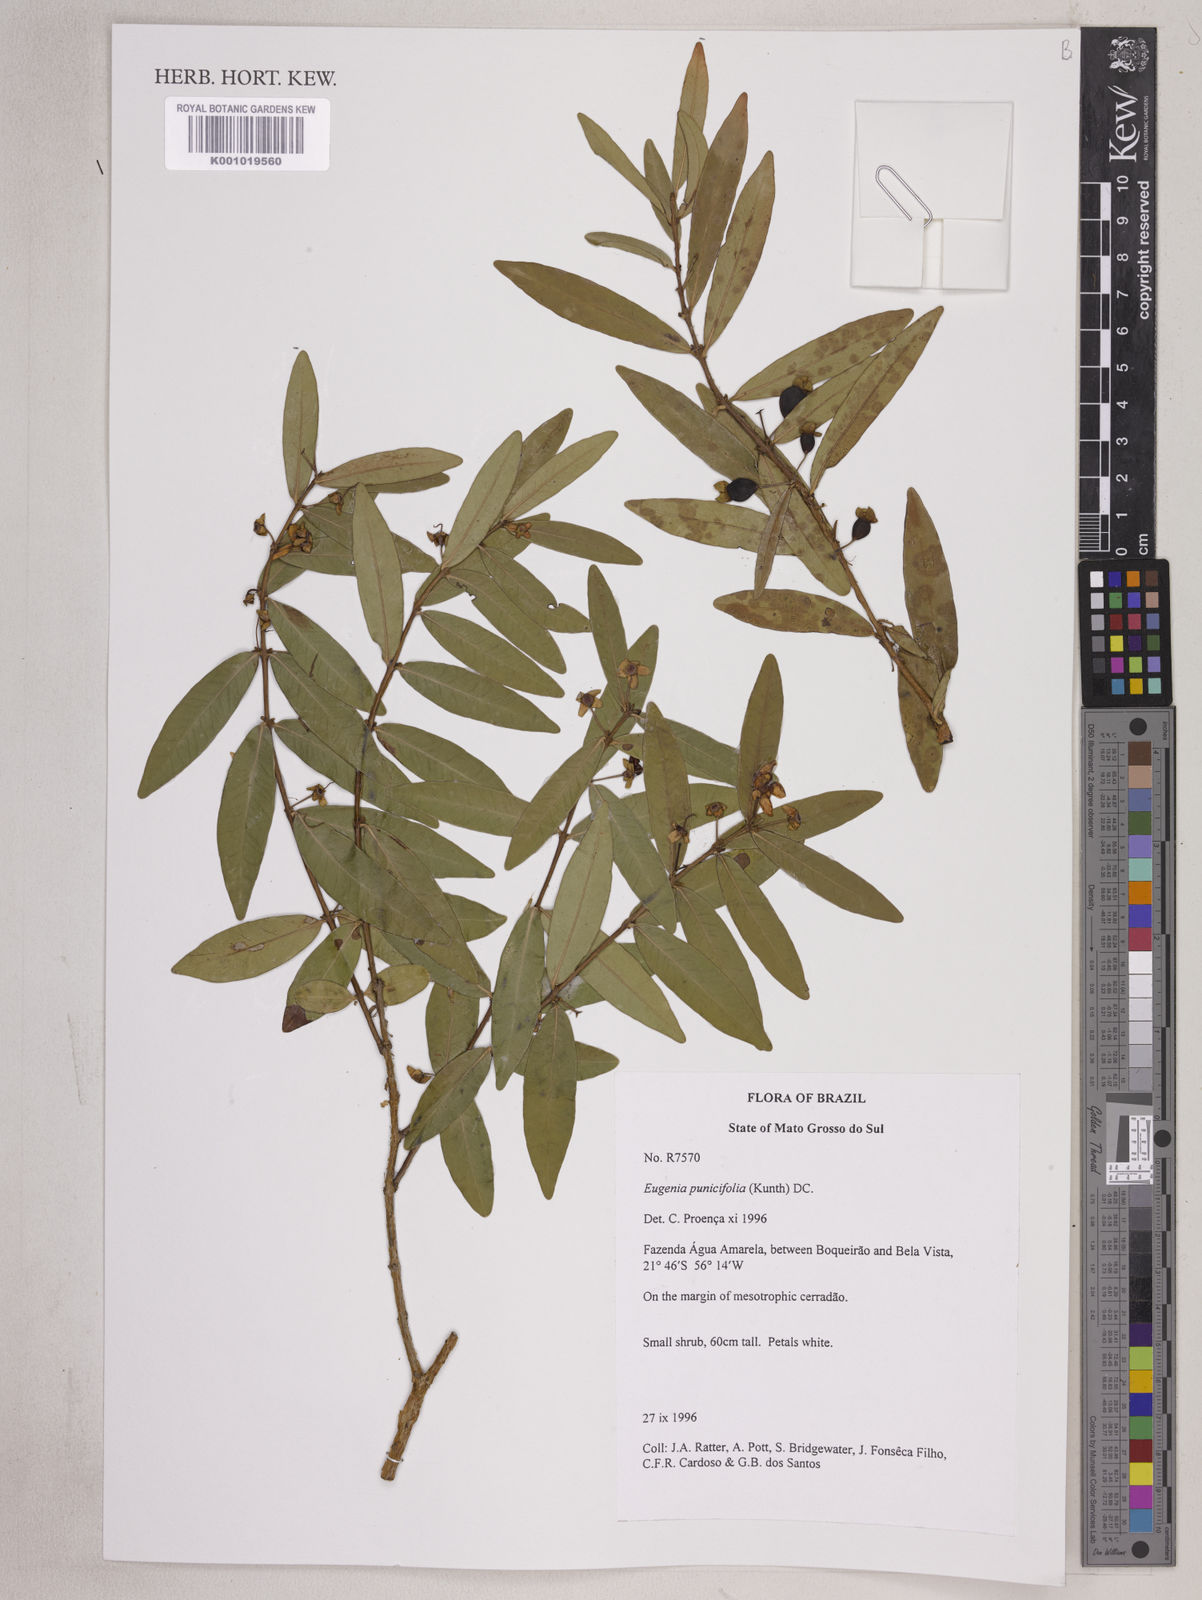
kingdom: Plantae
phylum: Tracheophyta
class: Magnoliopsida
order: Myrtales
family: Myrtaceae
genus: Eugenia
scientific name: Eugenia punicifolia
